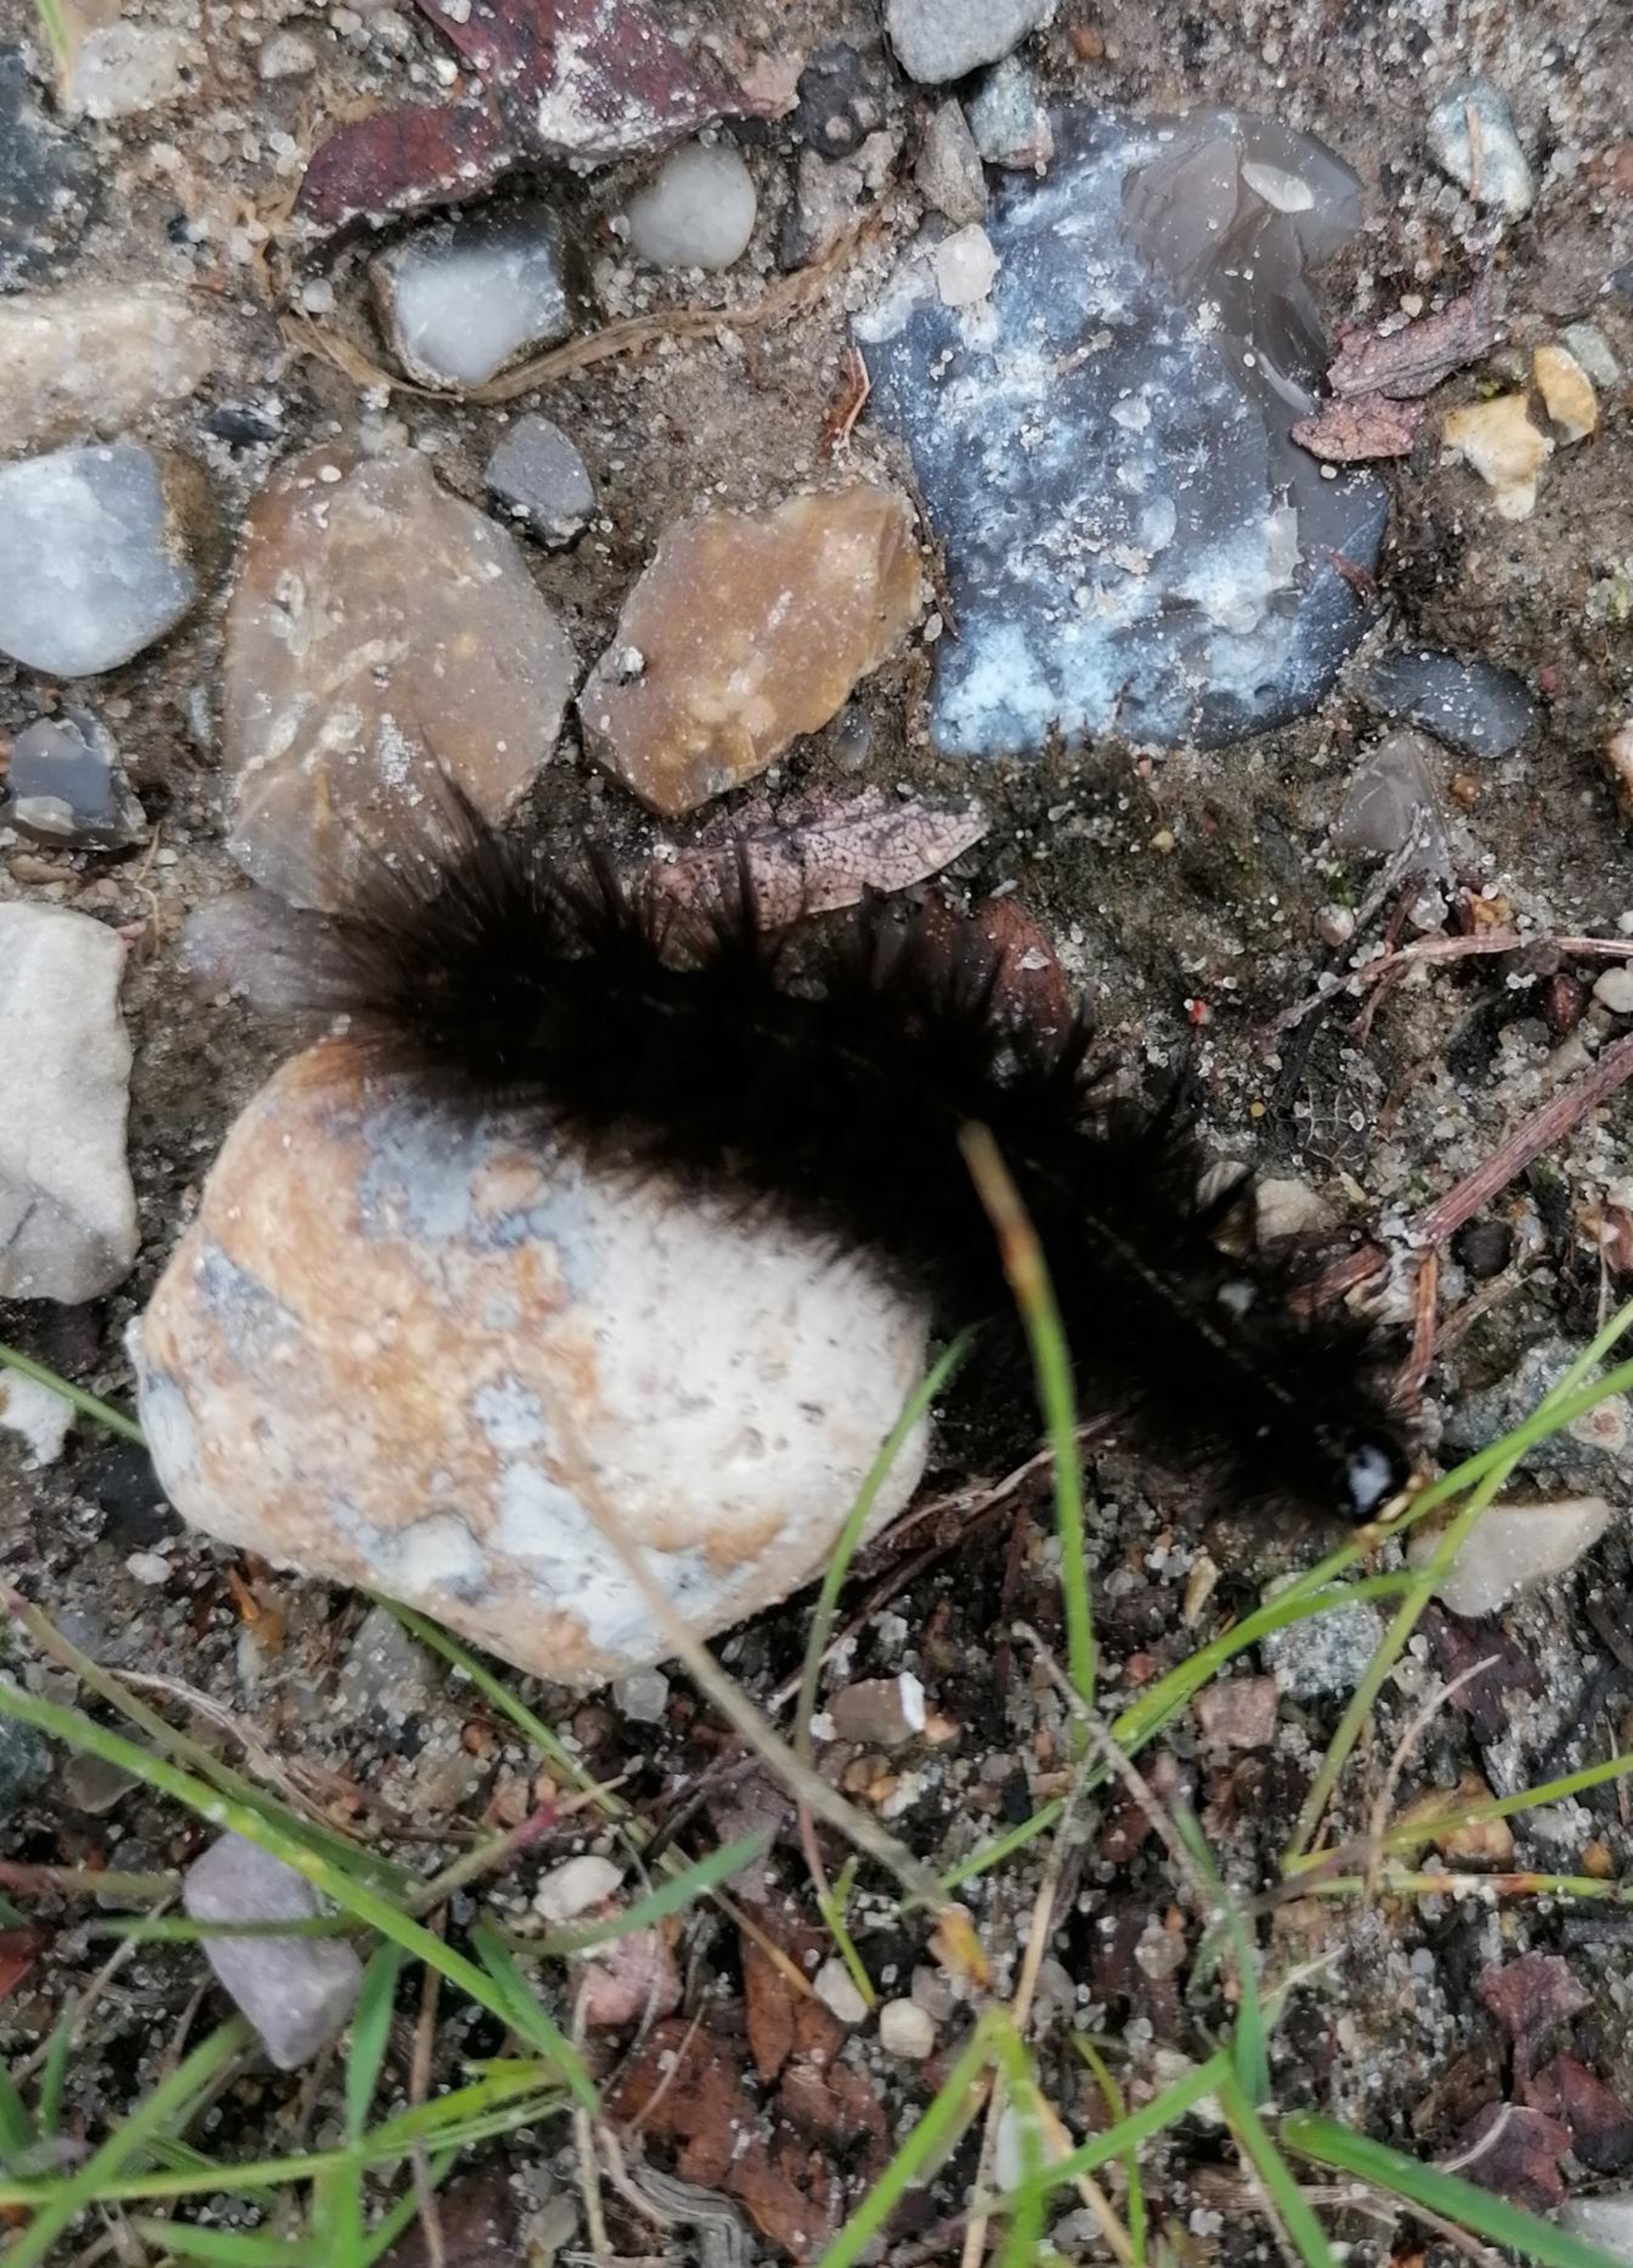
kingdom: Animalia
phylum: Arthropoda
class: Insecta
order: Lepidoptera
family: Erebidae
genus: Arctia
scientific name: Arctia caja
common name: Brun bjørn
